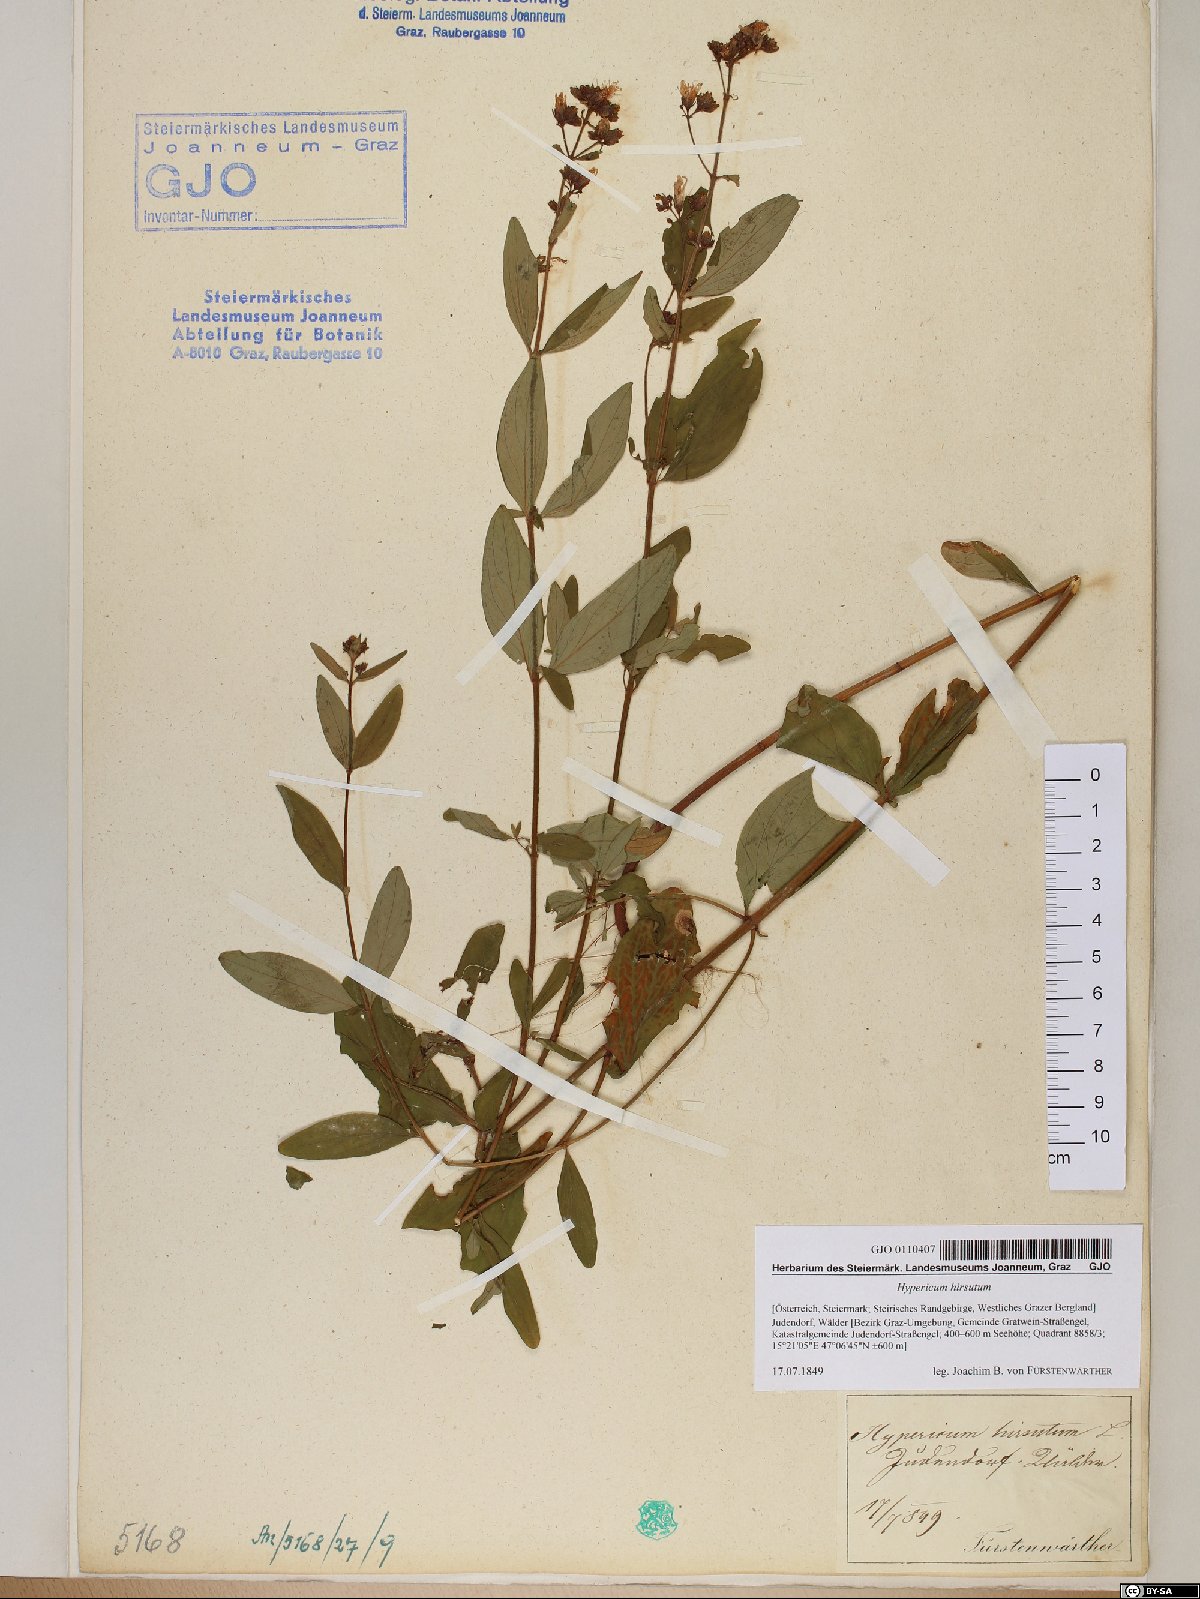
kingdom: Plantae
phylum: Tracheophyta
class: Magnoliopsida
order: Malpighiales
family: Hypericaceae
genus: Hypericum
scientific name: Hypericum hirsutum
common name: Hairy st. john's-wort
